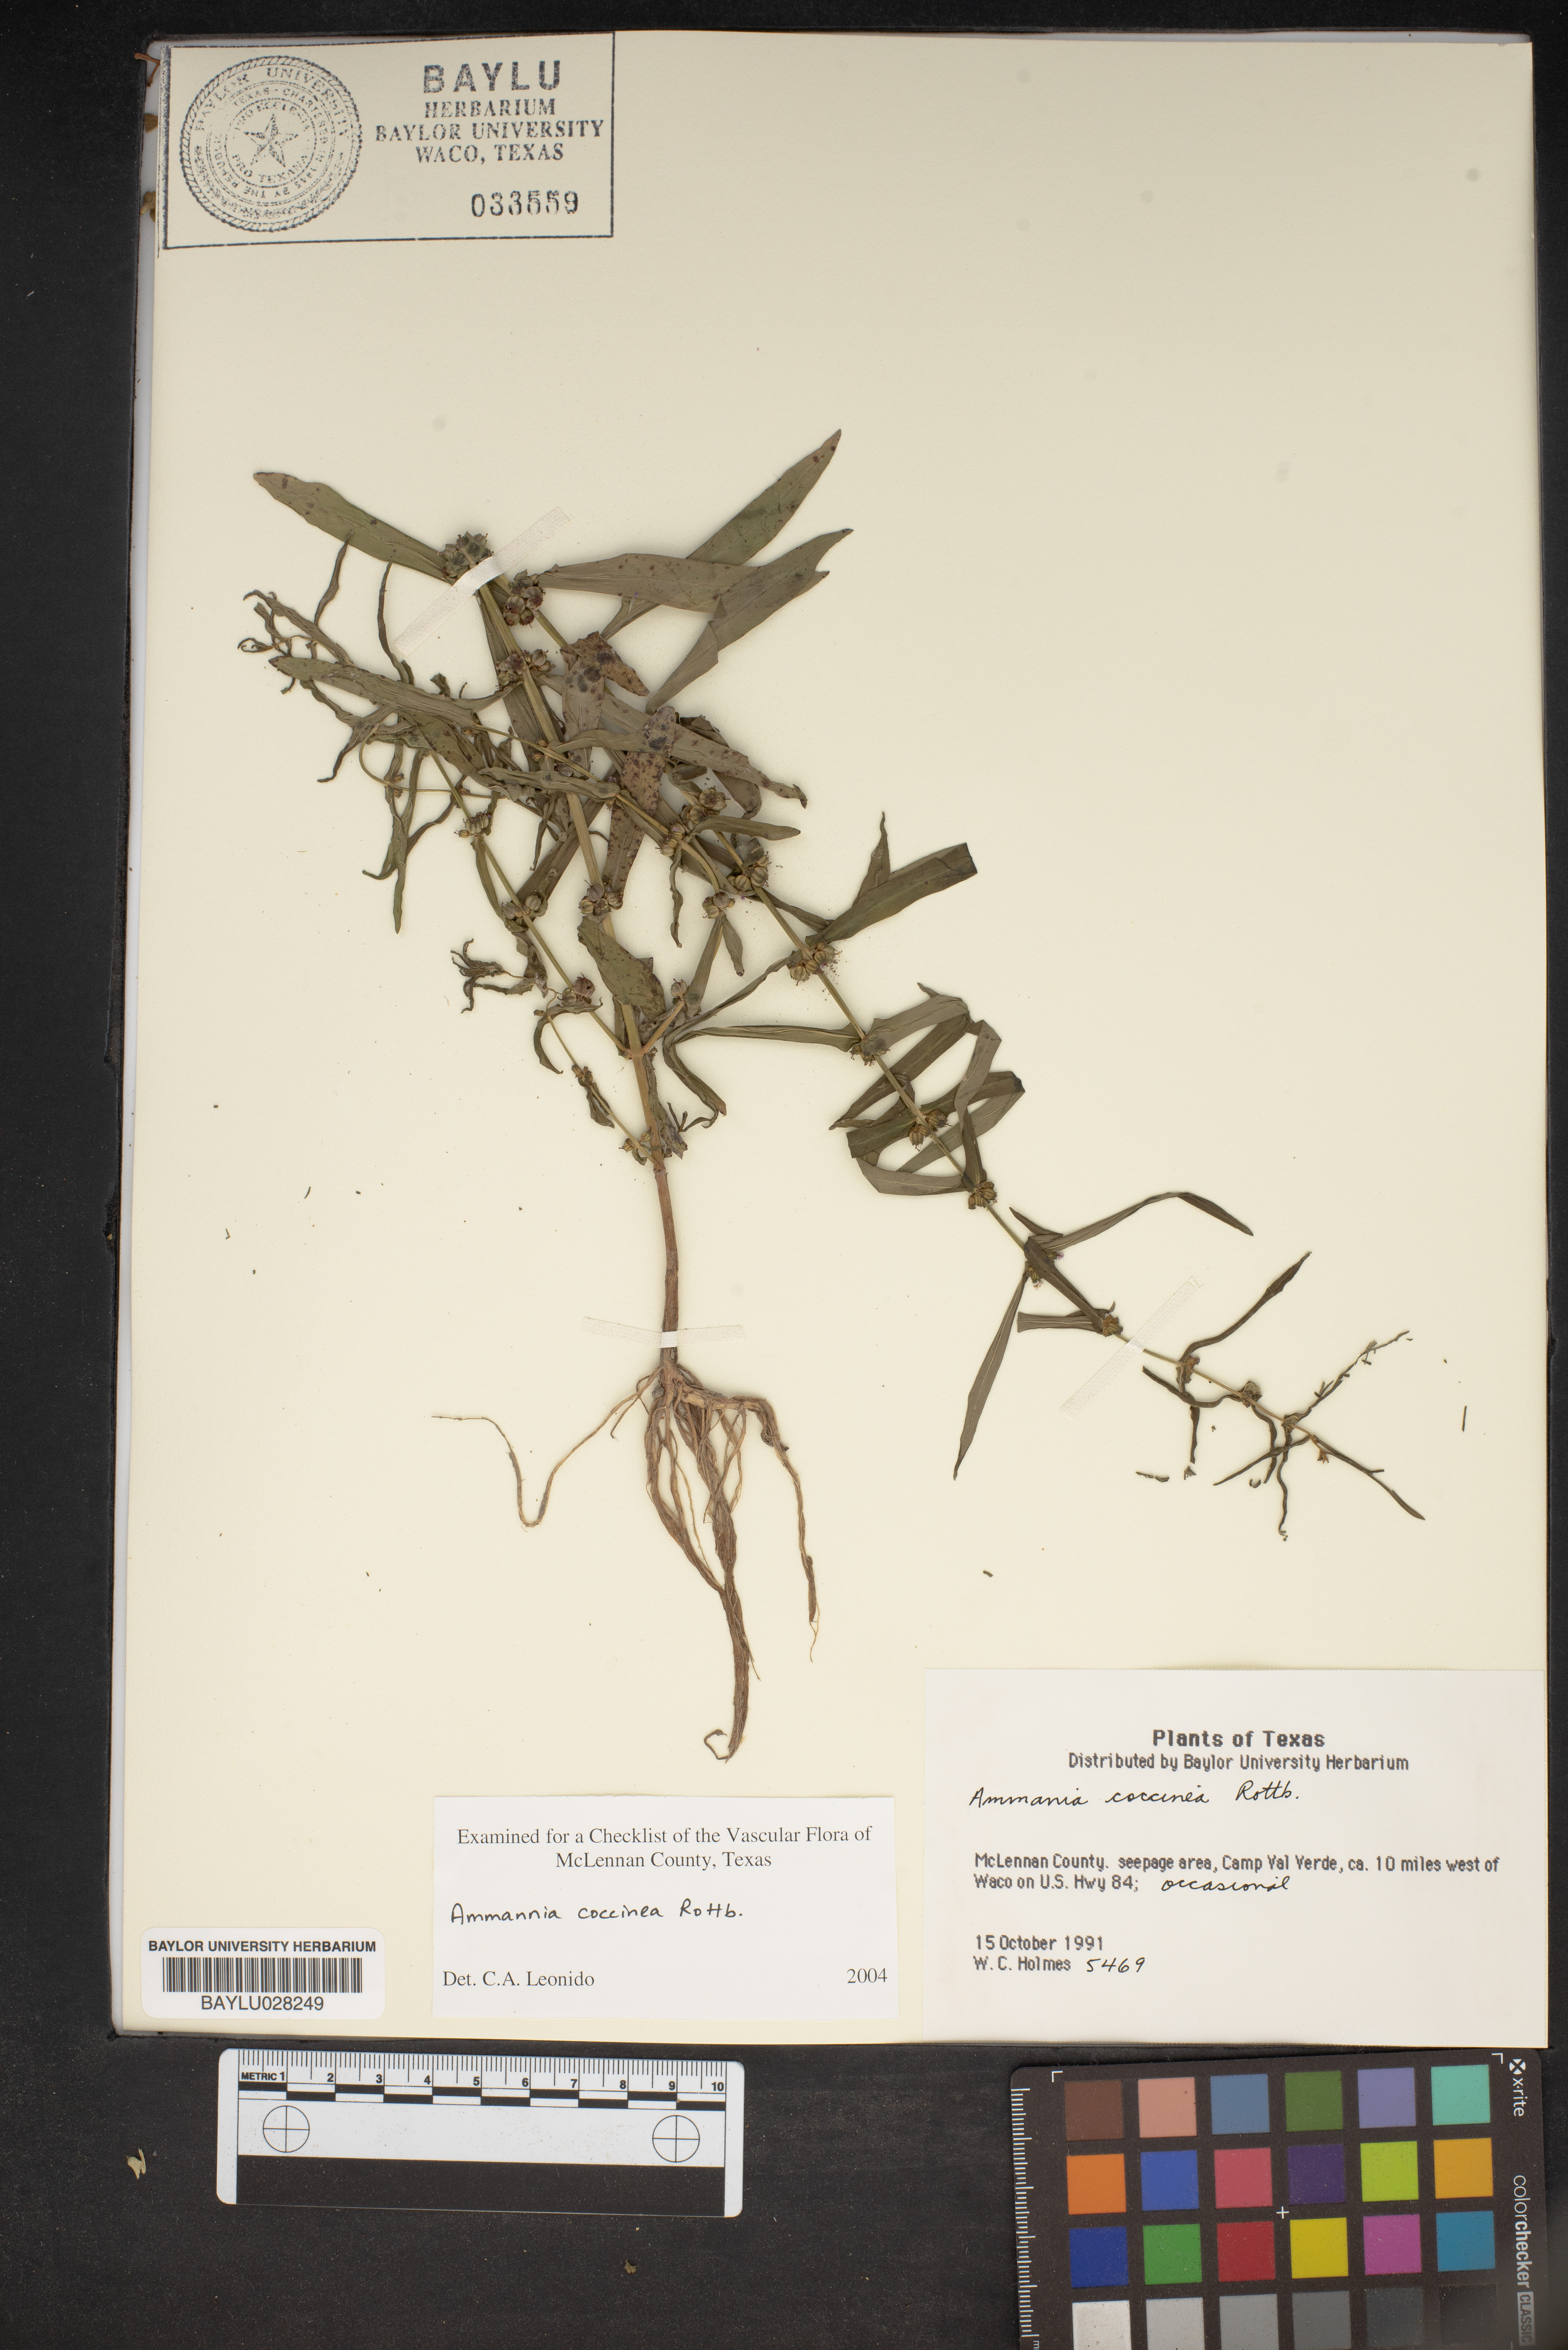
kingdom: Plantae
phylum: Tracheophyta
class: Magnoliopsida
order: Myrtales
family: Lythraceae
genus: Ammannia
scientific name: Ammannia coccinea
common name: Valley redstem
